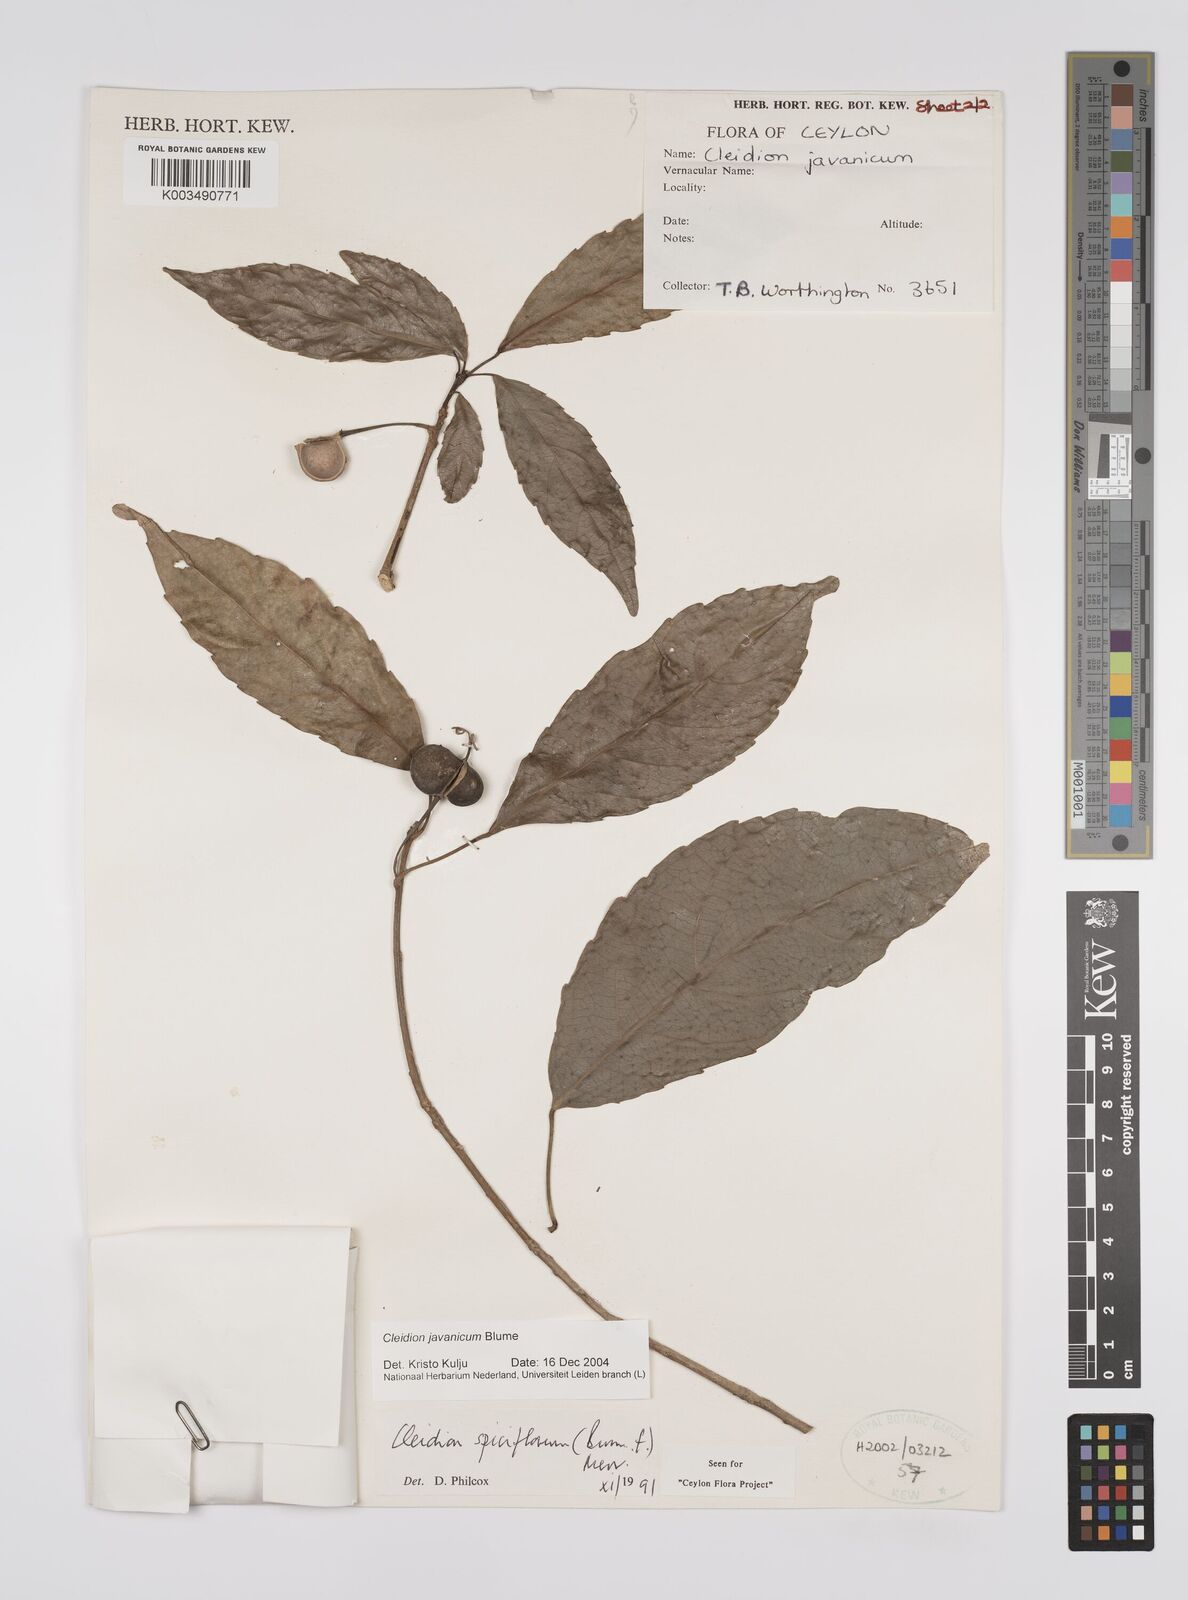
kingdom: Plantae
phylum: Tracheophyta
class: Magnoliopsida
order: Malpighiales
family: Euphorbiaceae
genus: Cleidion
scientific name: Cleidion javanicum
